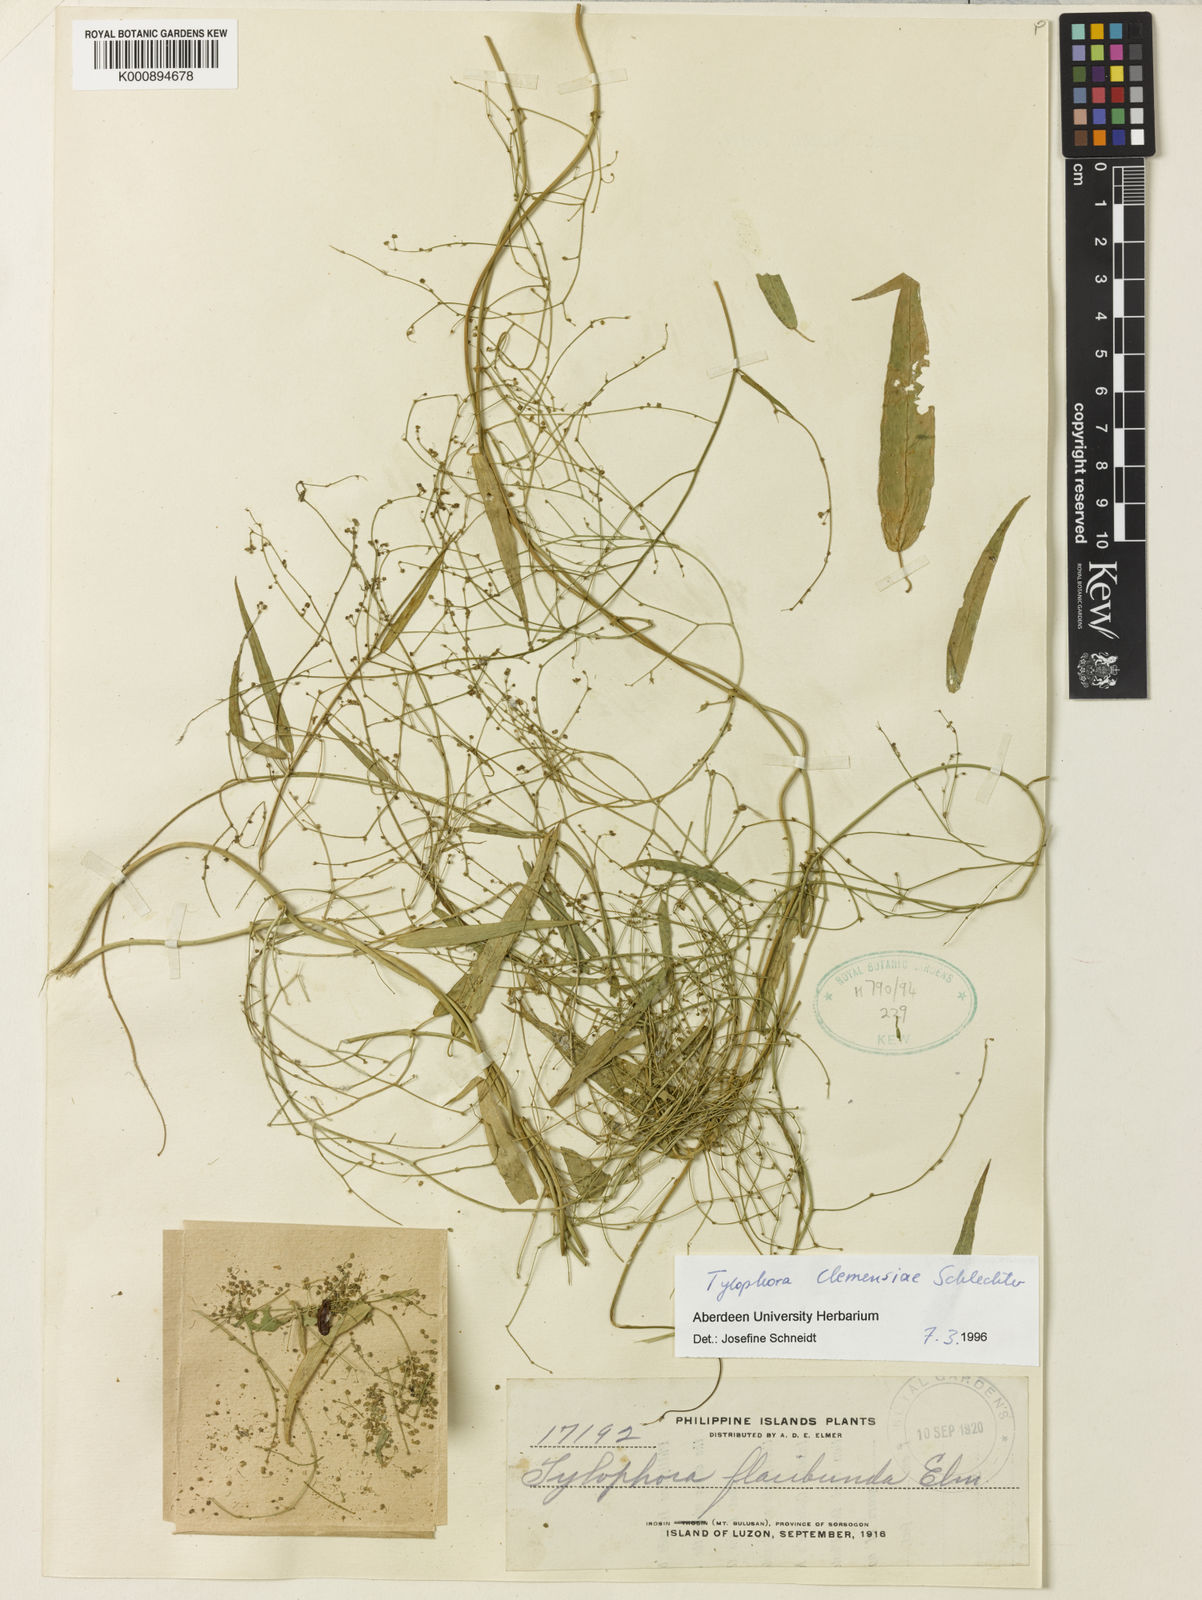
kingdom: Plantae
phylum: Tracheophyta
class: Magnoliopsida
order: Gentianales
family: Apocynaceae
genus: Vincetoxicum
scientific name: Vincetoxicum clemensiae
